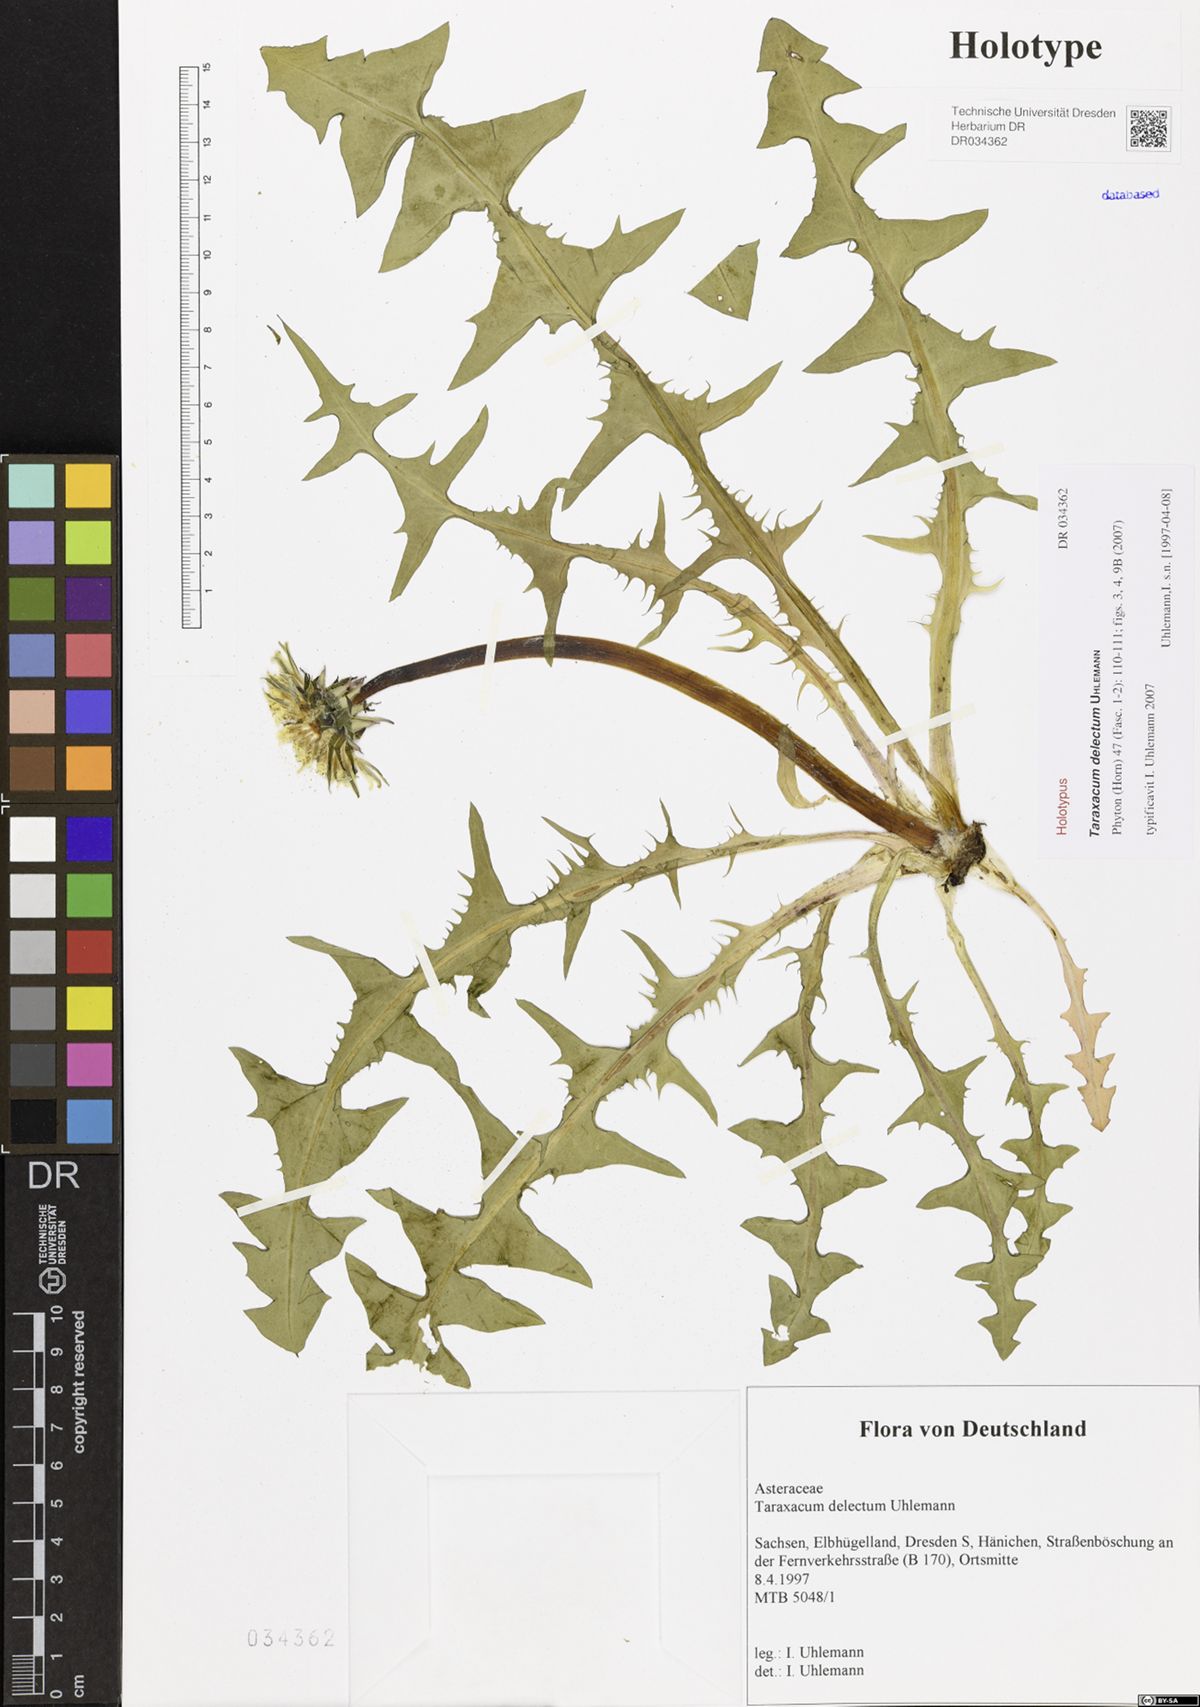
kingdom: Plantae
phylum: Tracheophyta
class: Magnoliopsida
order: Asterales
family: Asteraceae
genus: Taraxacum
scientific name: Taraxacum delectum
